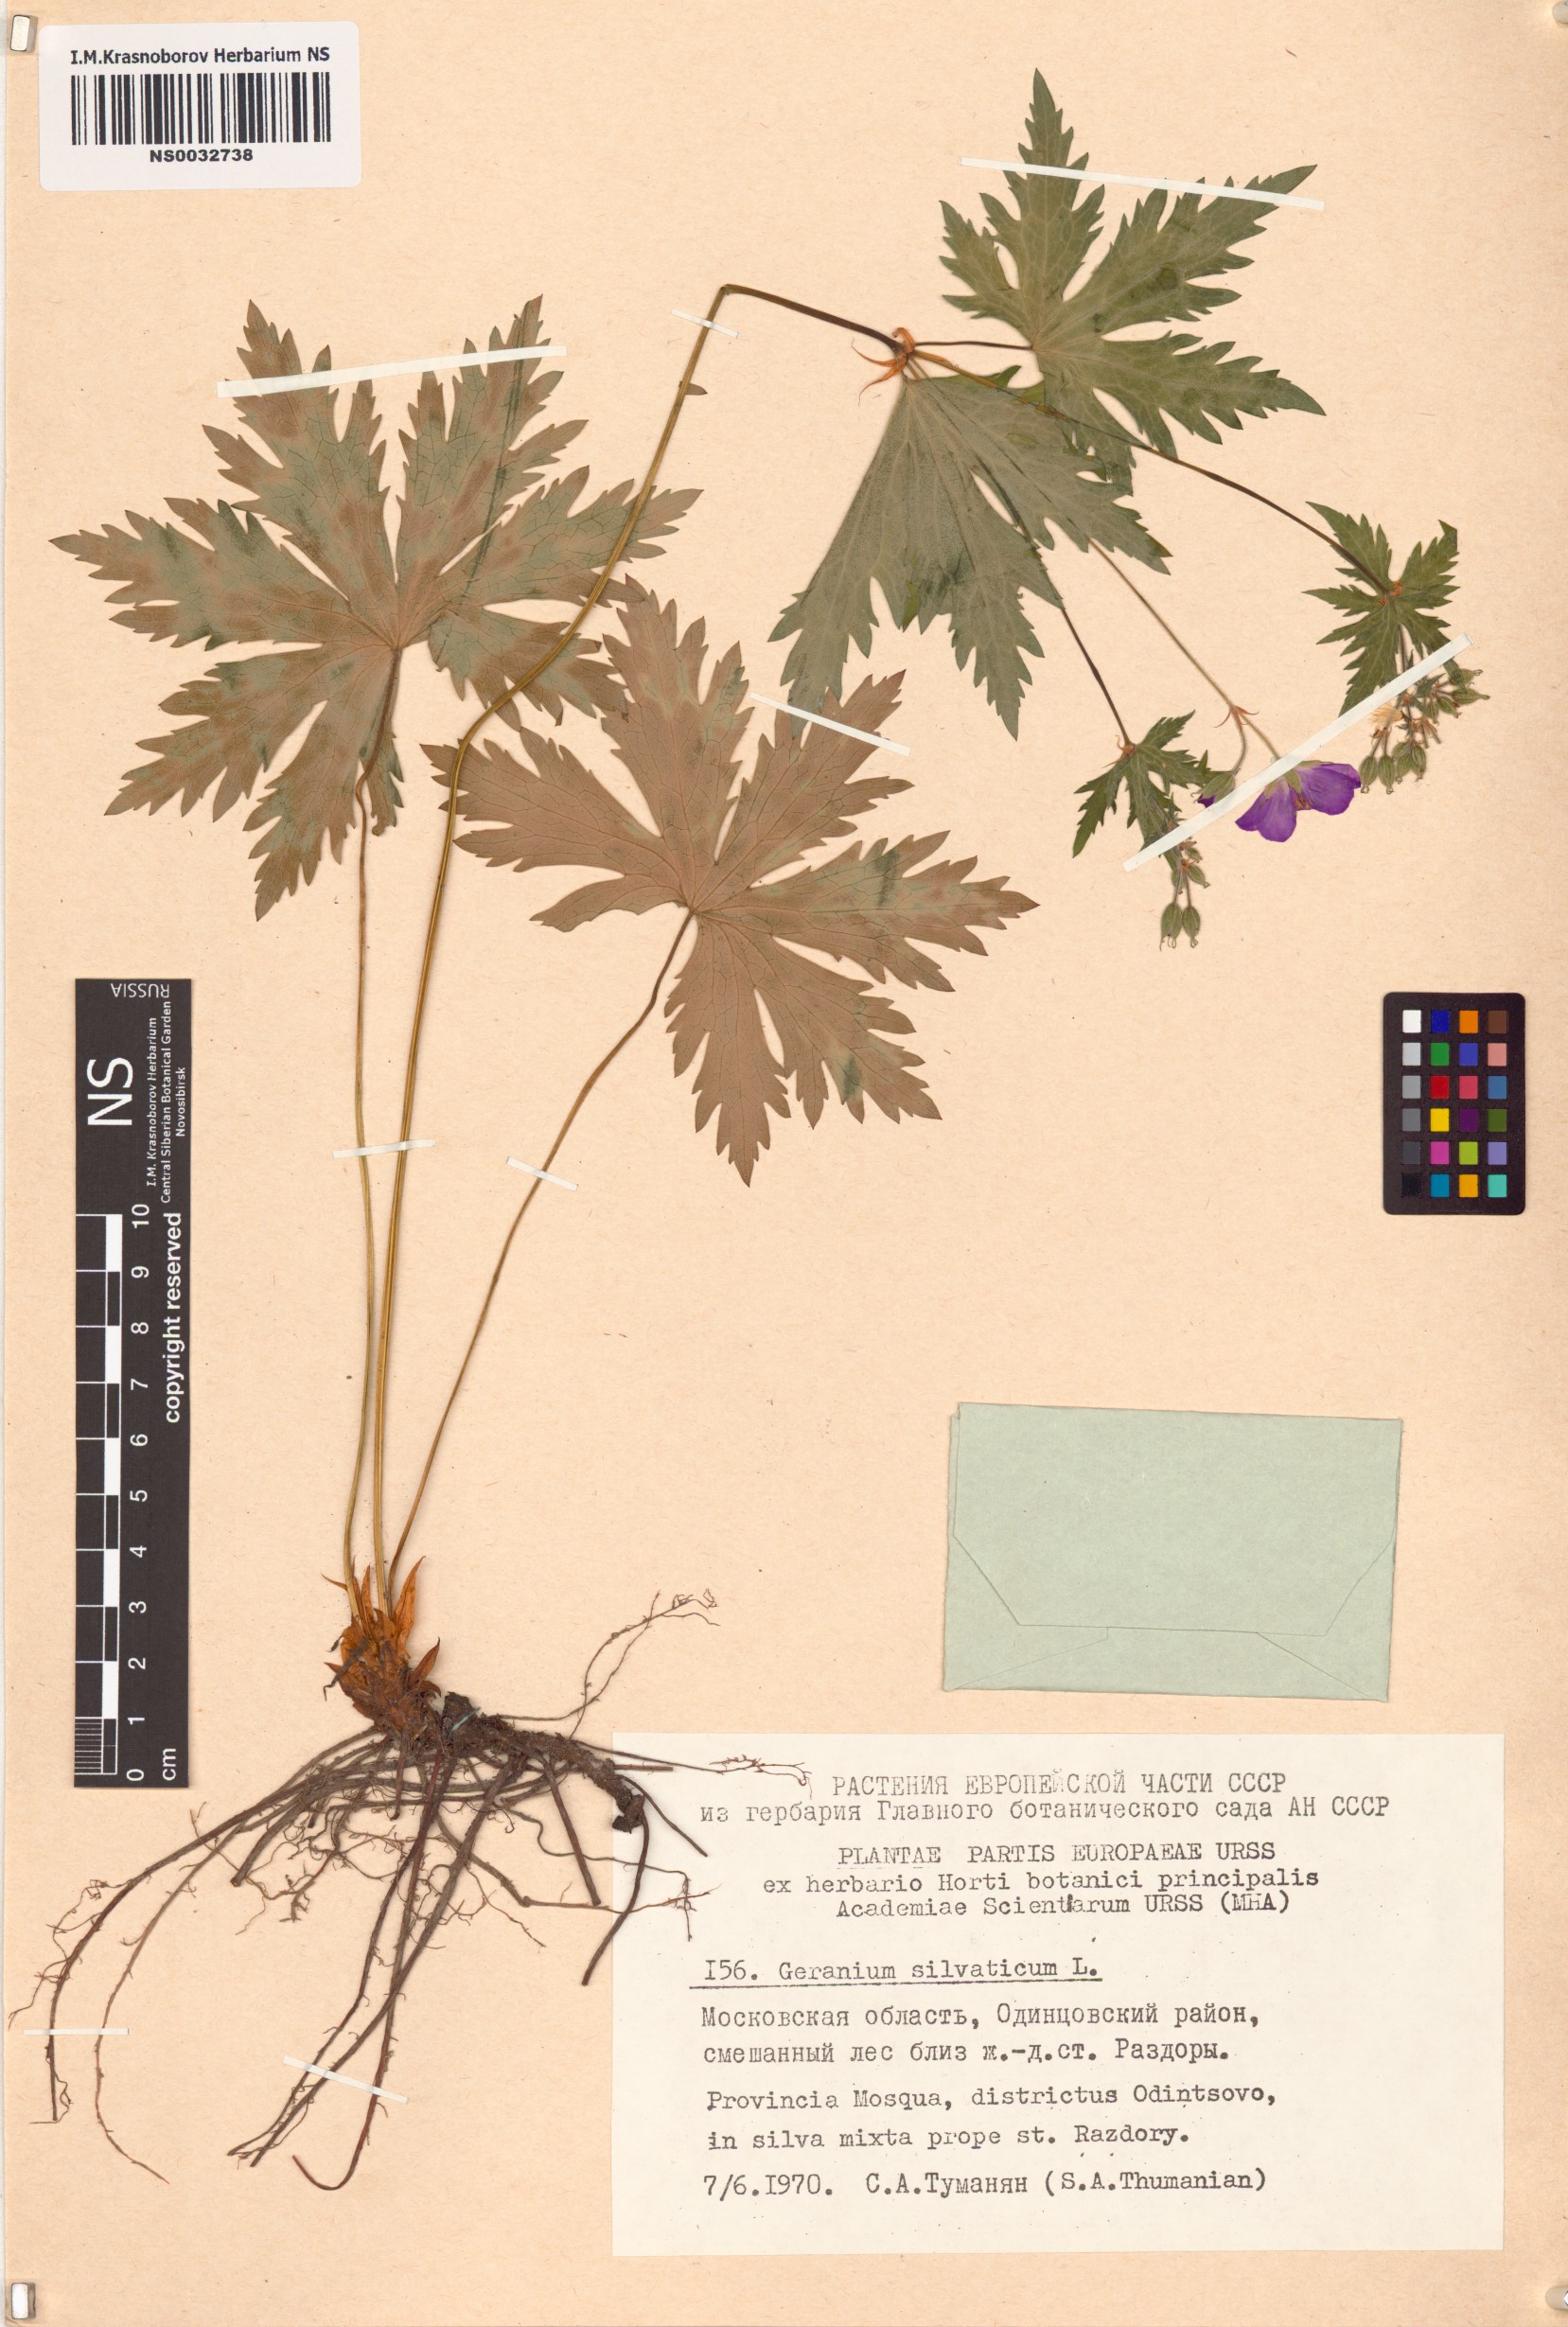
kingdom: Plantae
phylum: Tracheophyta
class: Magnoliopsida
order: Geraniales
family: Geraniaceae
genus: Geranium
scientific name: Geranium sylvaticum
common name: Wood crane's-bill
